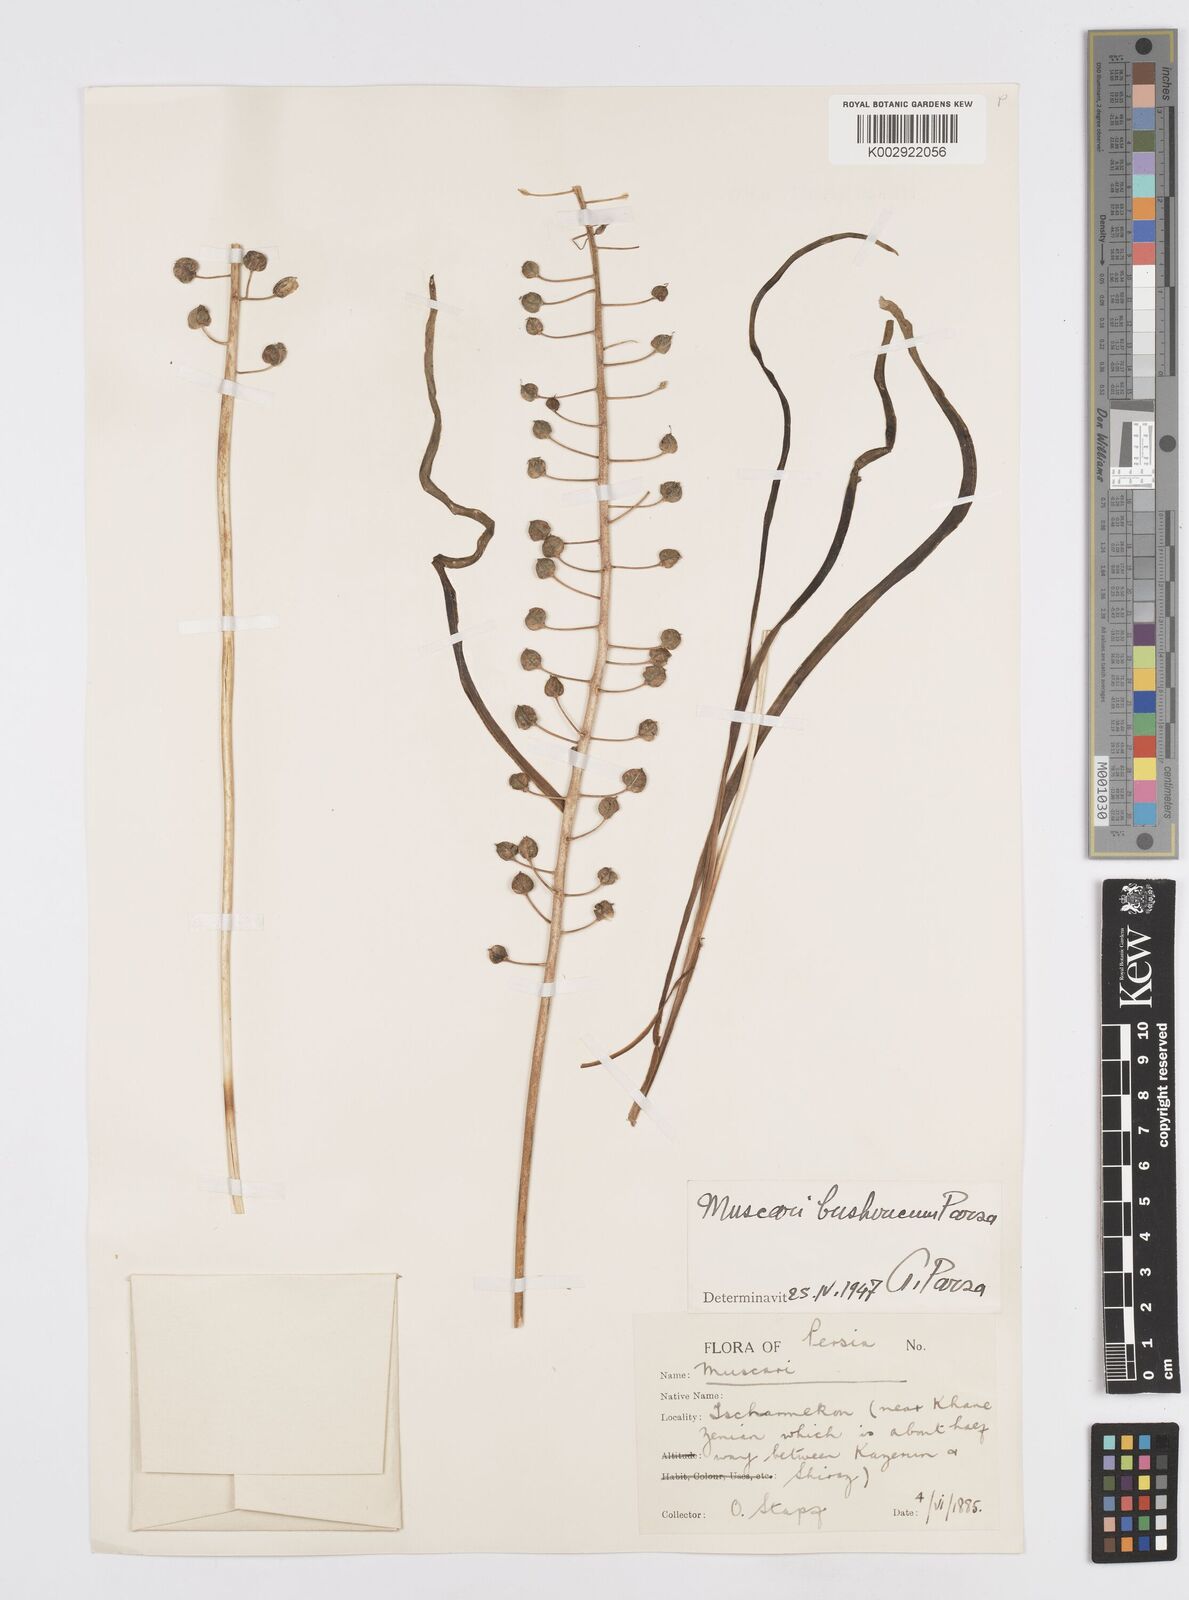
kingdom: Animalia
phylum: Mollusca
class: Cephalopoda
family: Neocomitidae
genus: Leopoldia
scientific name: Leopoldia
